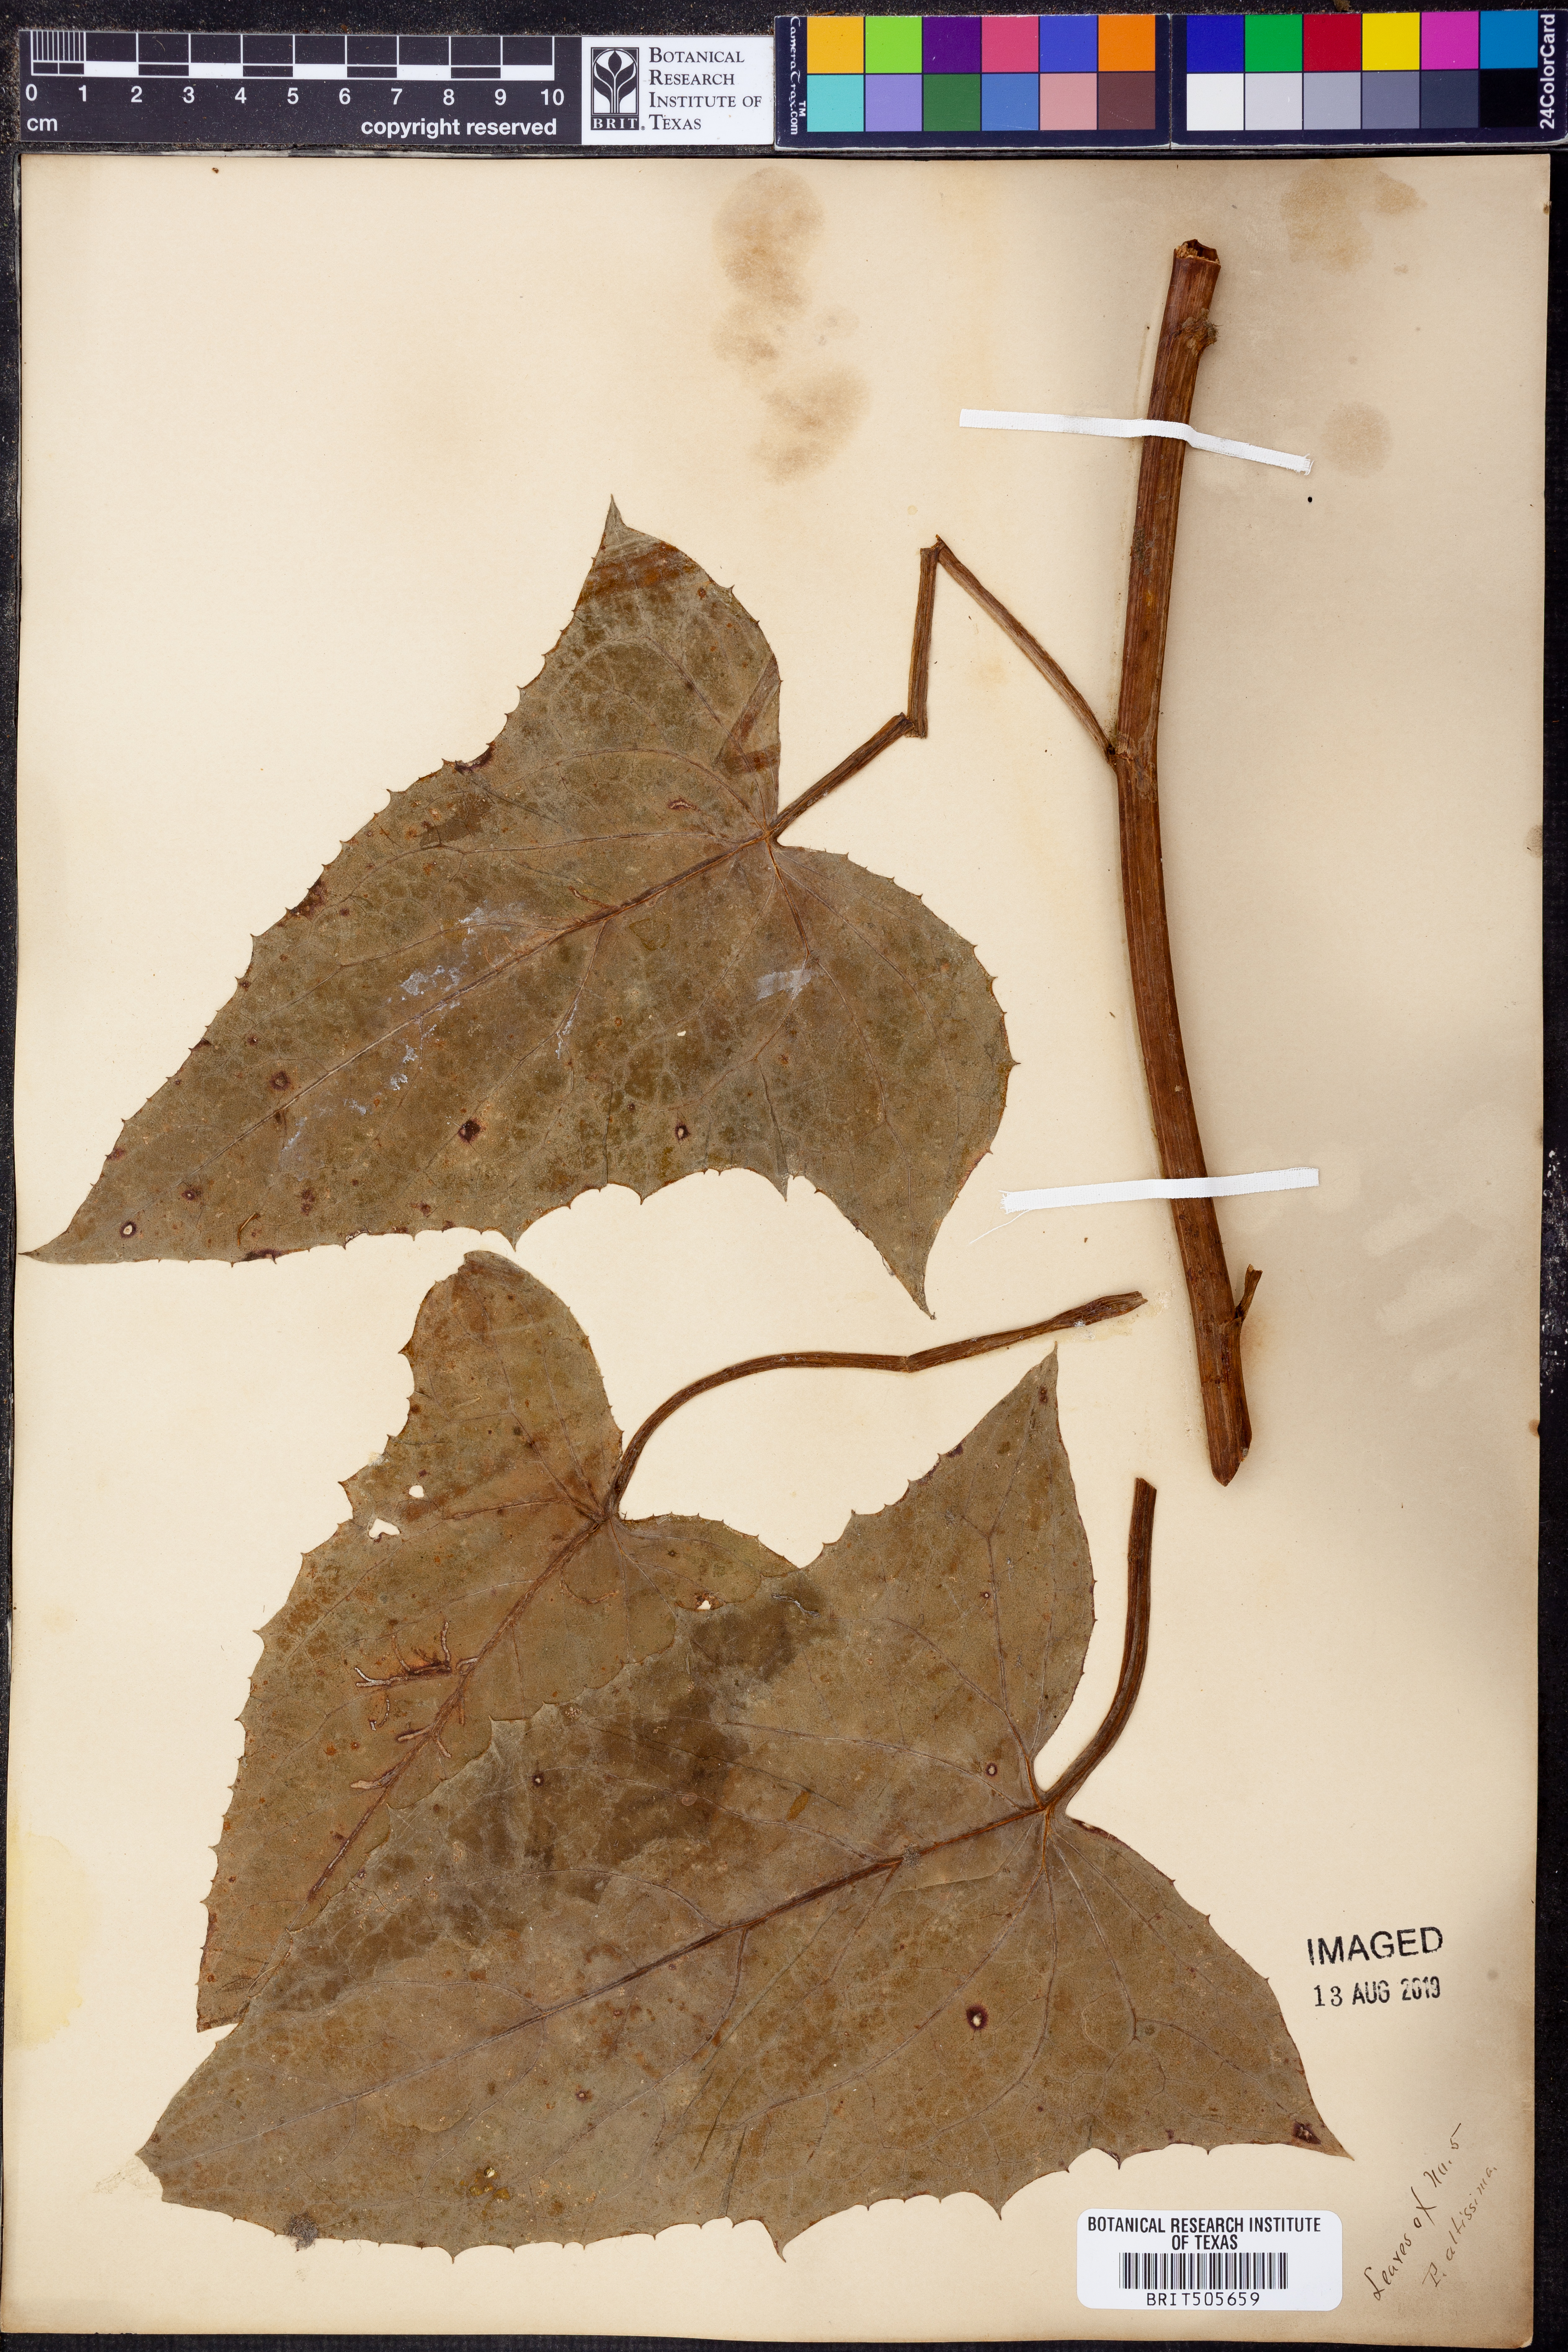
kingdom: Plantae
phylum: Tracheophyta
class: Magnoliopsida
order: Asterales
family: Asteraceae
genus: Lactuca
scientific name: Lactuca quercina
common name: Wild lettuce
